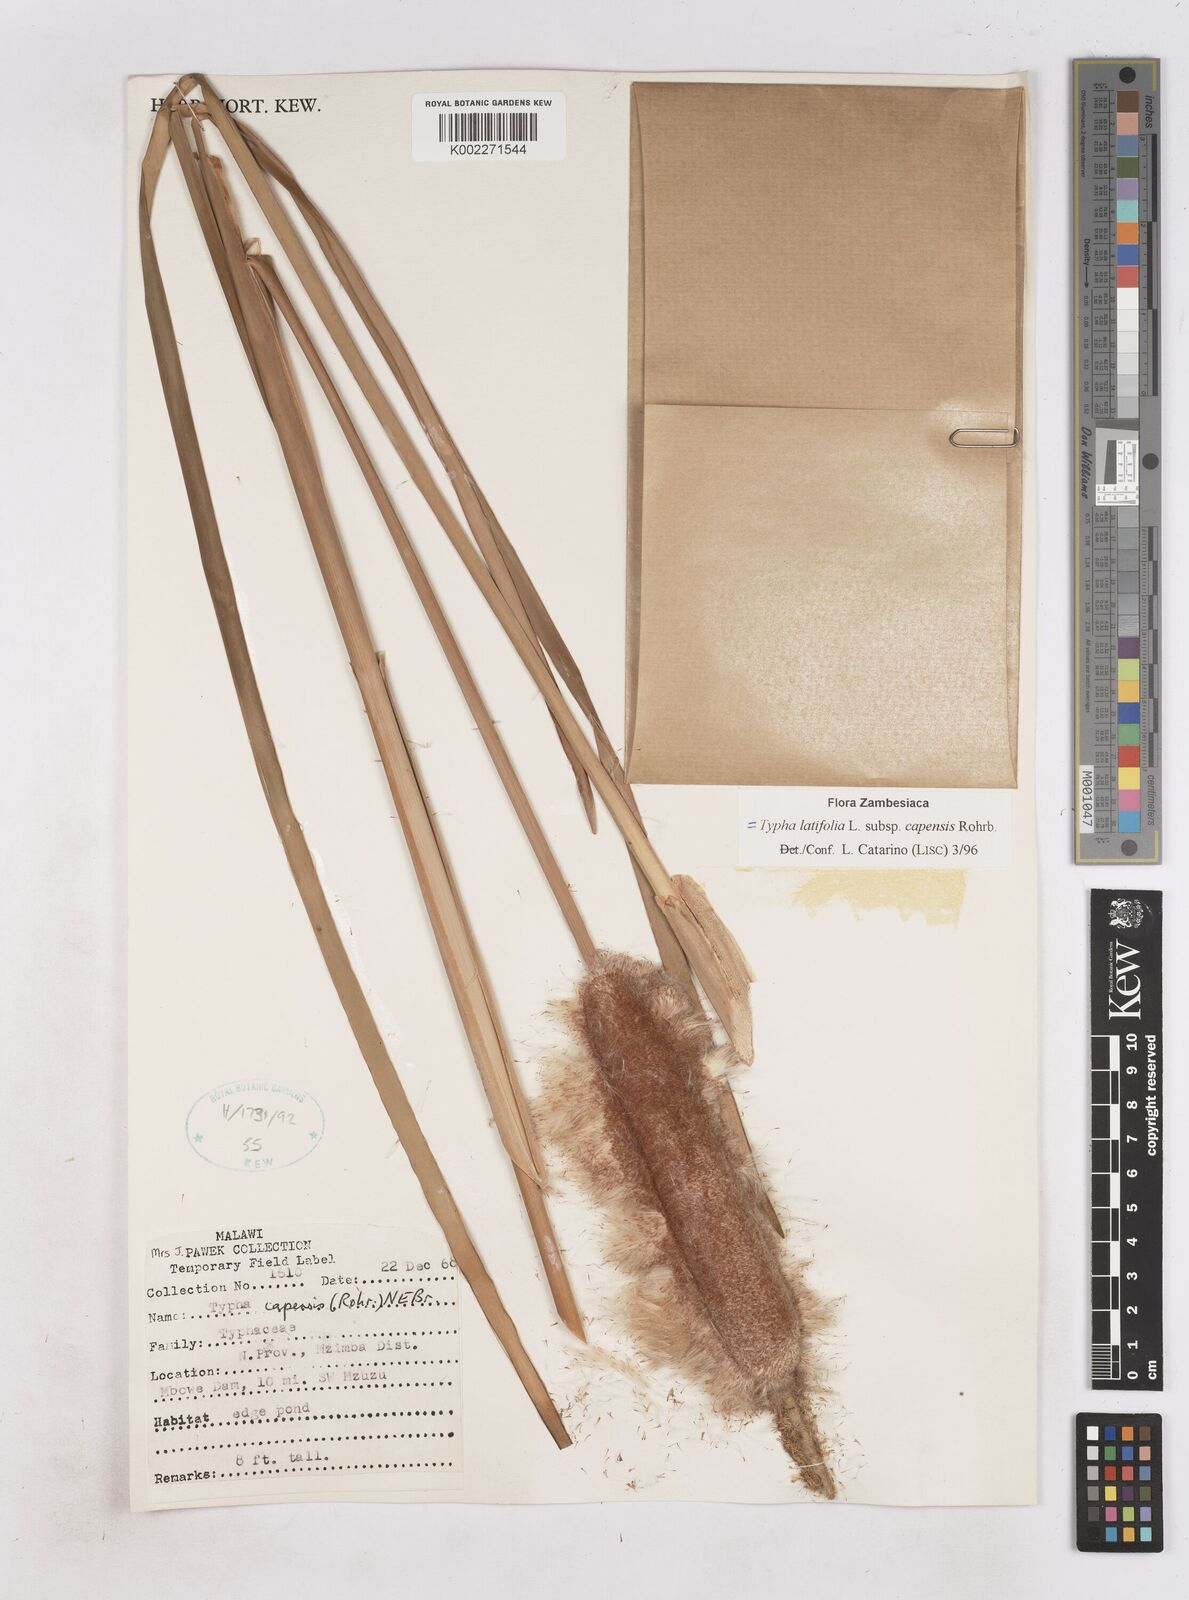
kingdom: Plantae
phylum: Tracheophyta
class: Liliopsida
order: Poales
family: Typhaceae
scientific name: Typhaceae
